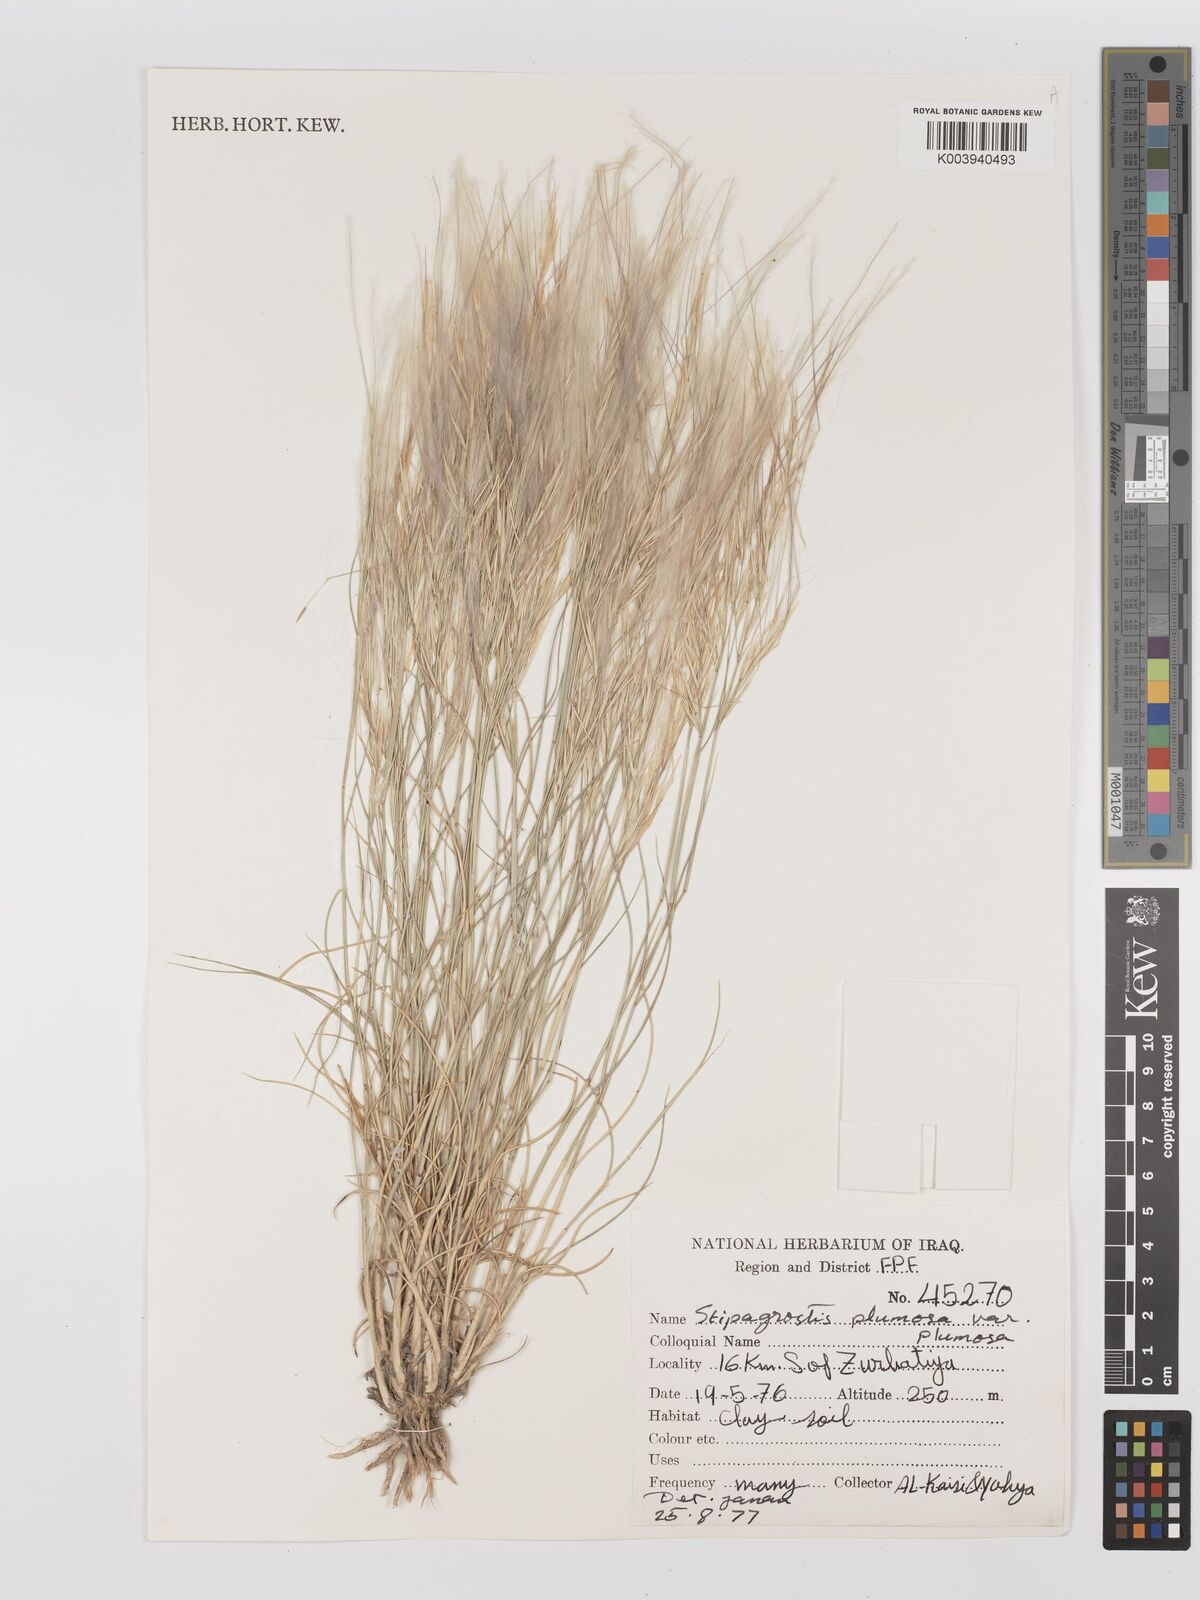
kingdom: Plantae
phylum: Tracheophyta
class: Liliopsida
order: Poales
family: Poaceae
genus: Stipagrostis
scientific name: Stipagrostis plumosa
